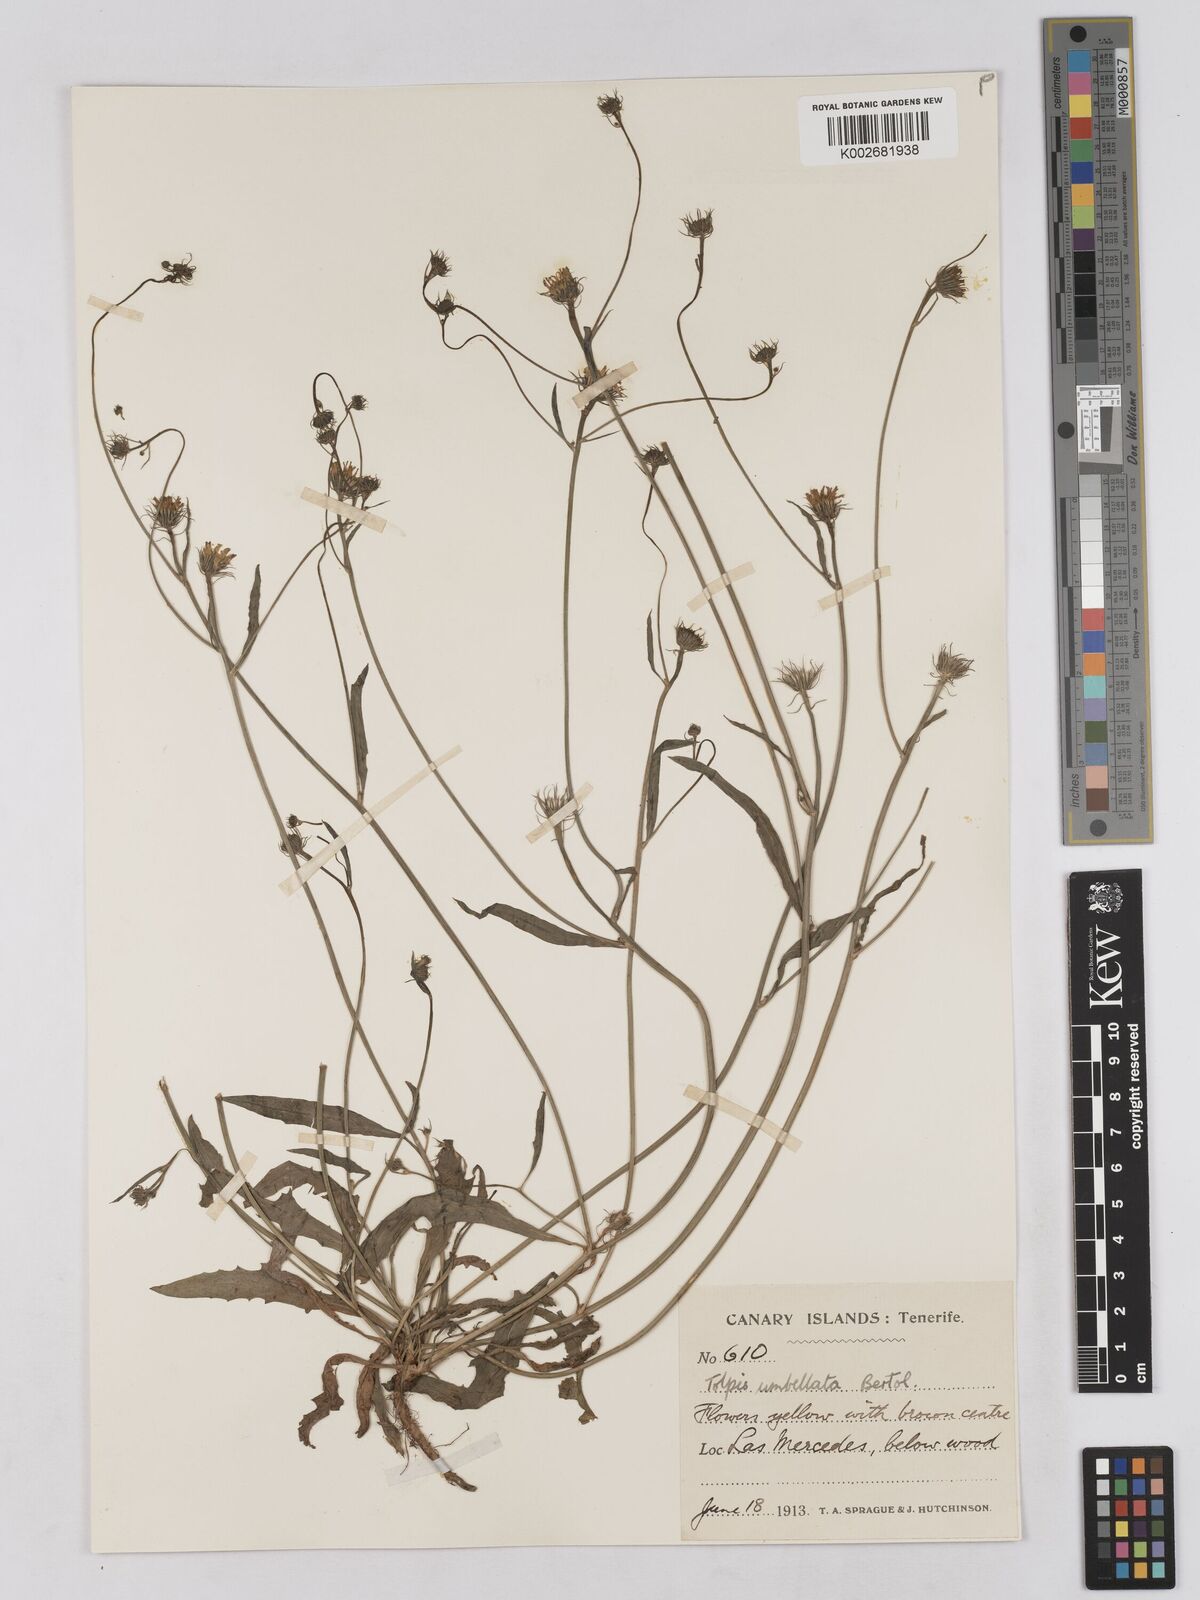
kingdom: Plantae
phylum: Tracheophyta
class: Magnoliopsida
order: Asterales
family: Asteraceae
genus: Tolpis
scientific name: Tolpis umbellata
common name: Yellow hawkweed
